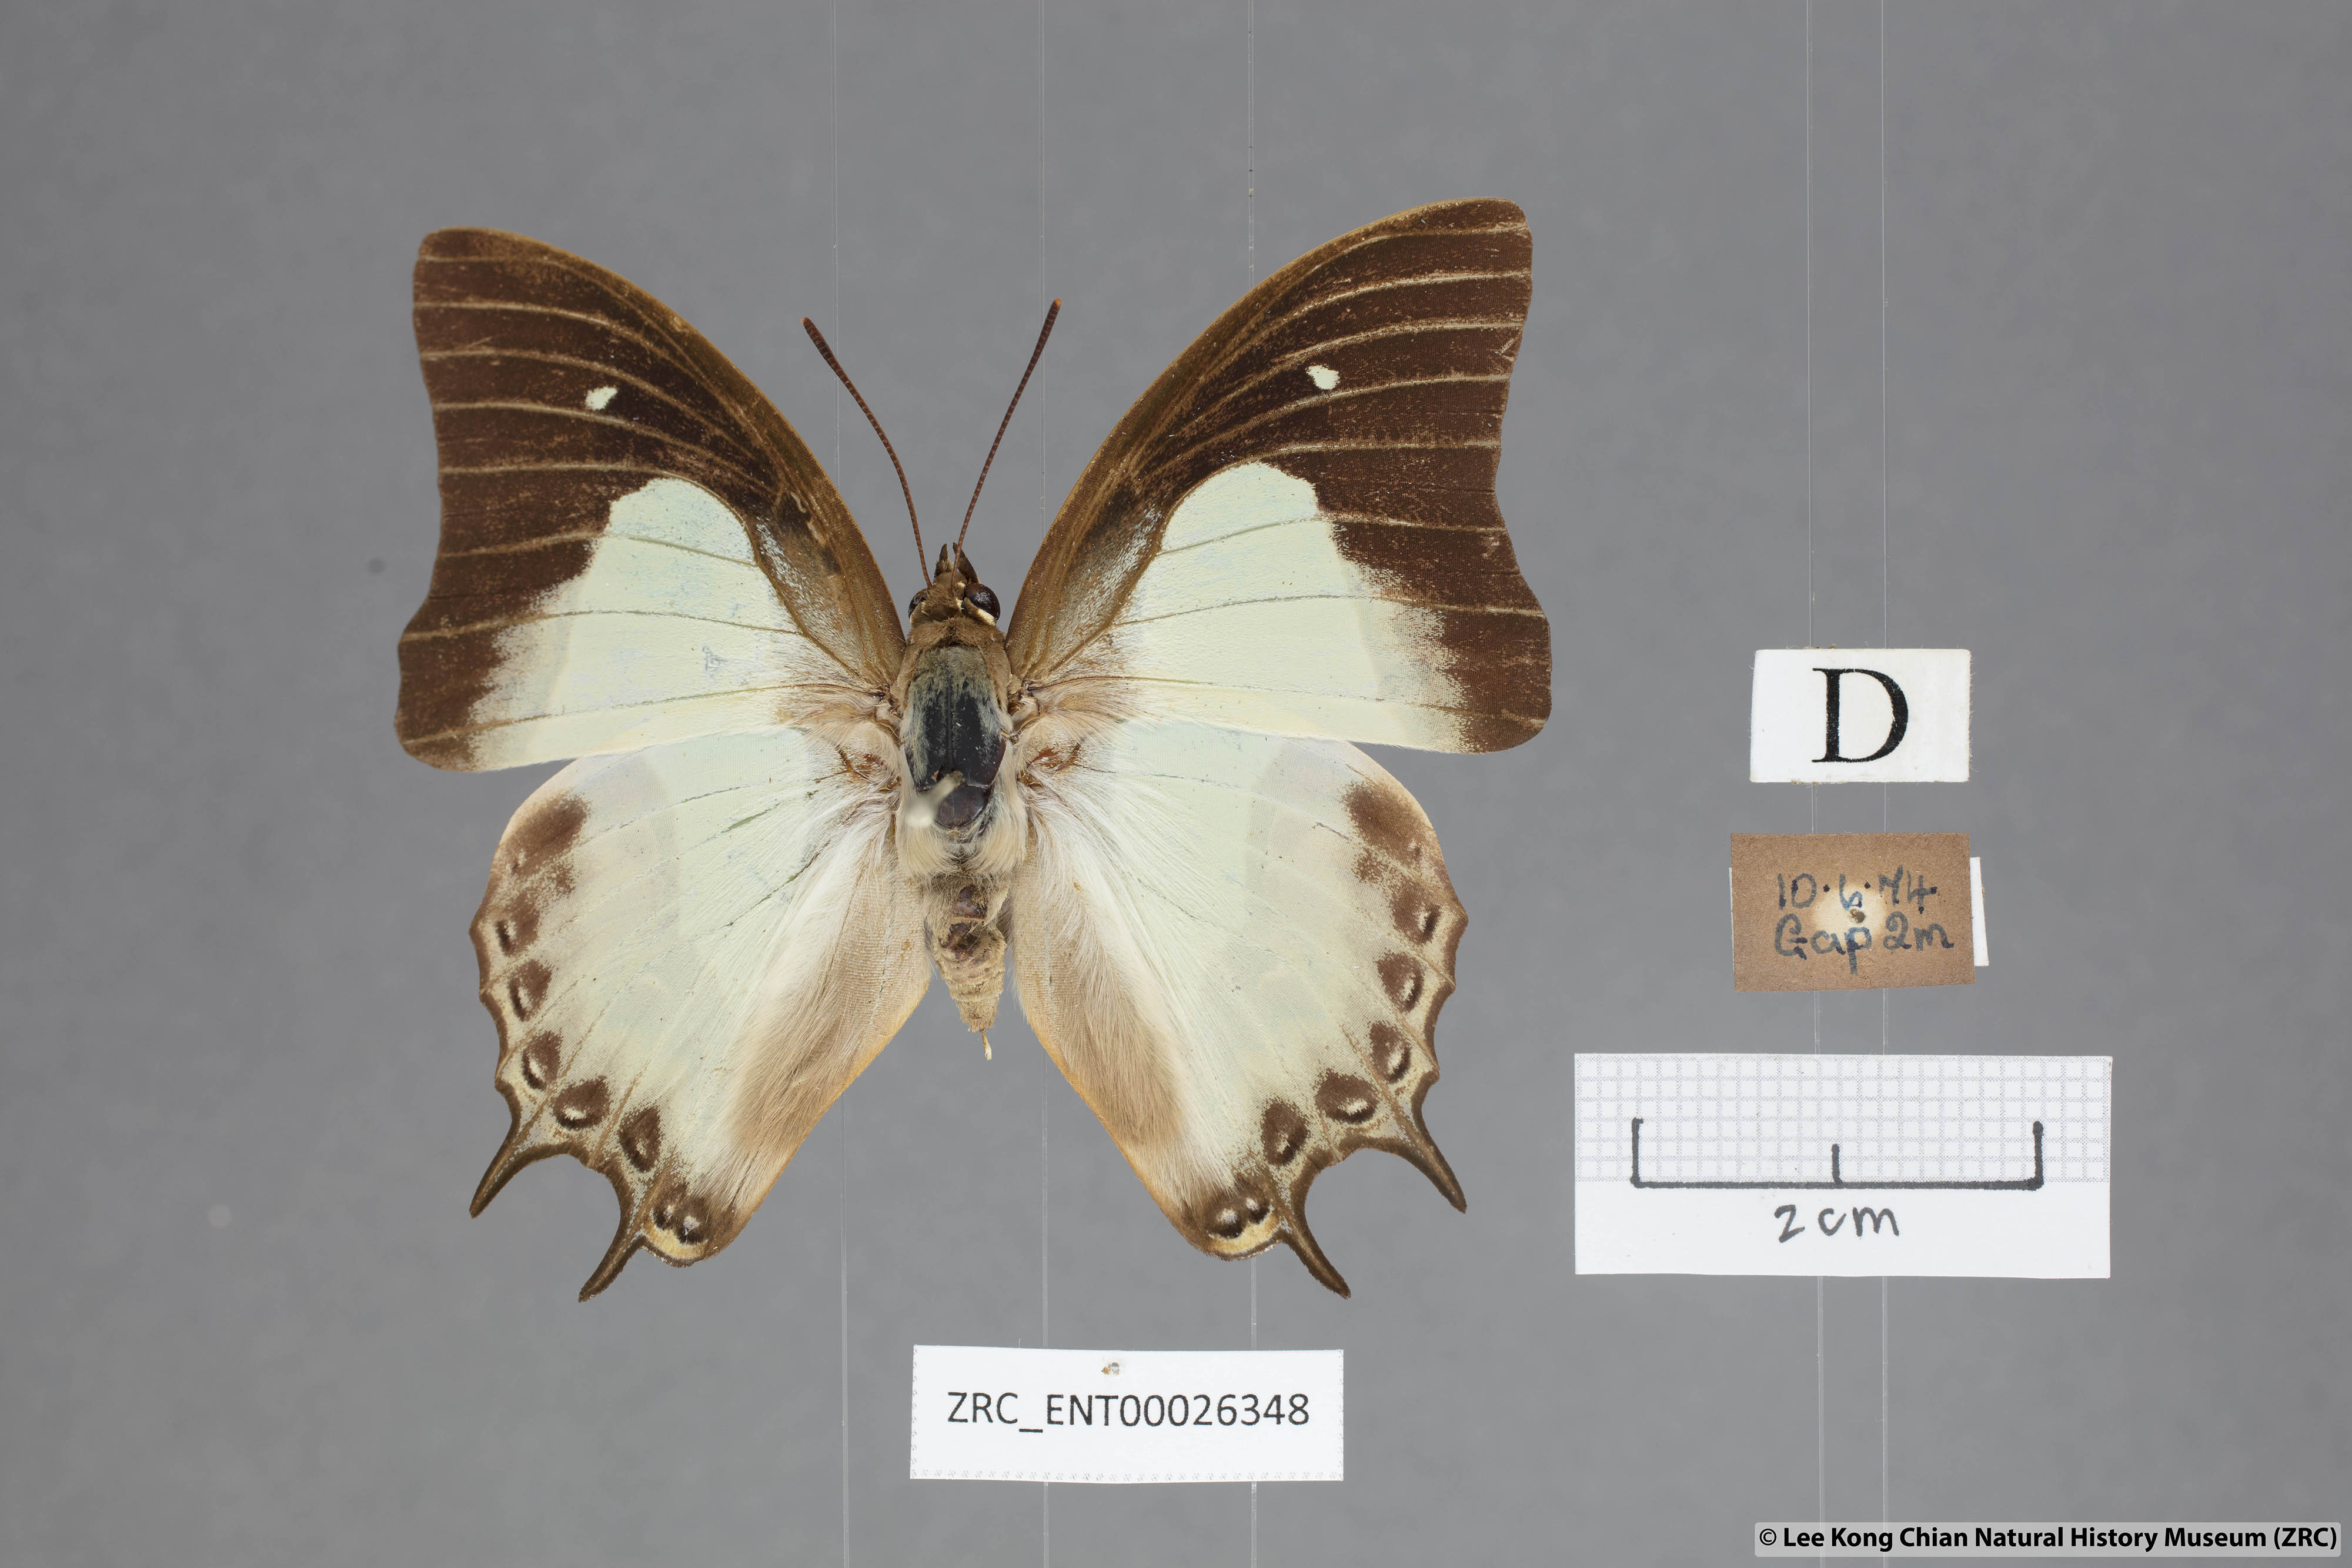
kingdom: Animalia
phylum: Arthropoda
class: Insecta
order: Lepidoptera
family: Nymphalidae
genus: Polyura
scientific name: Polyura hebe
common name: Plain nawab
